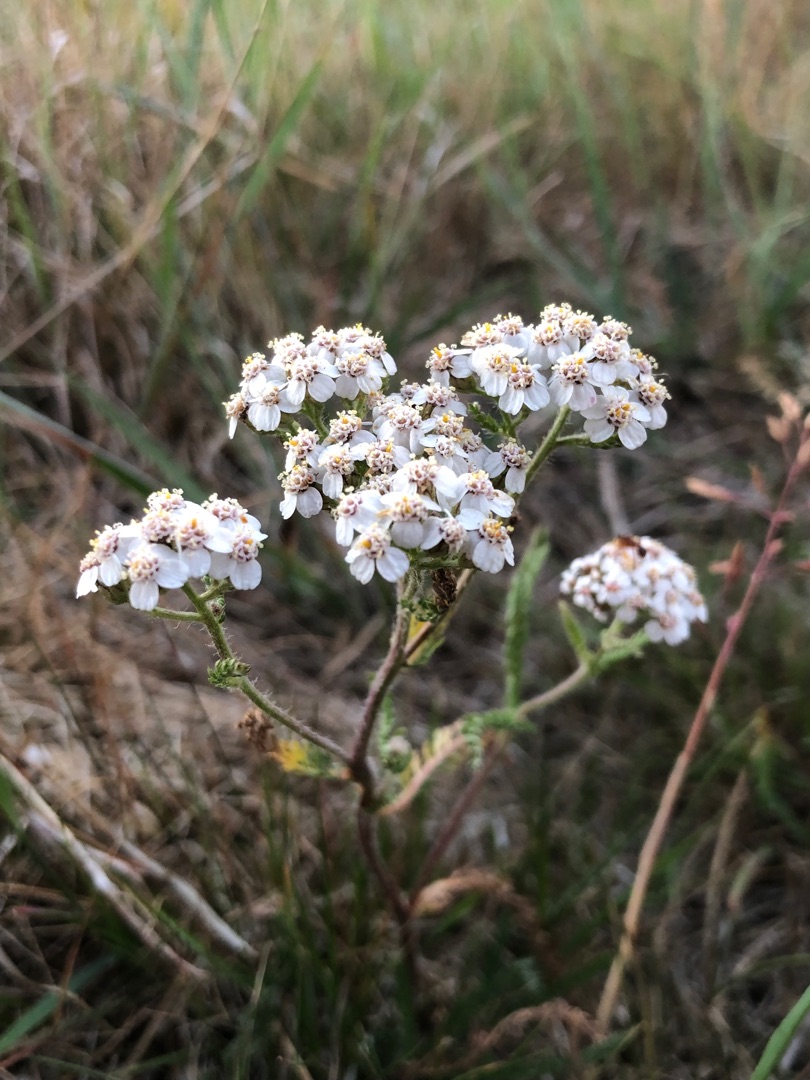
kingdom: Plantae
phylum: Tracheophyta
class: Magnoliopsida
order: Asterales
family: Asteraceae
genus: Achillea
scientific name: Achillea millefolium
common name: Almindelig røllike
